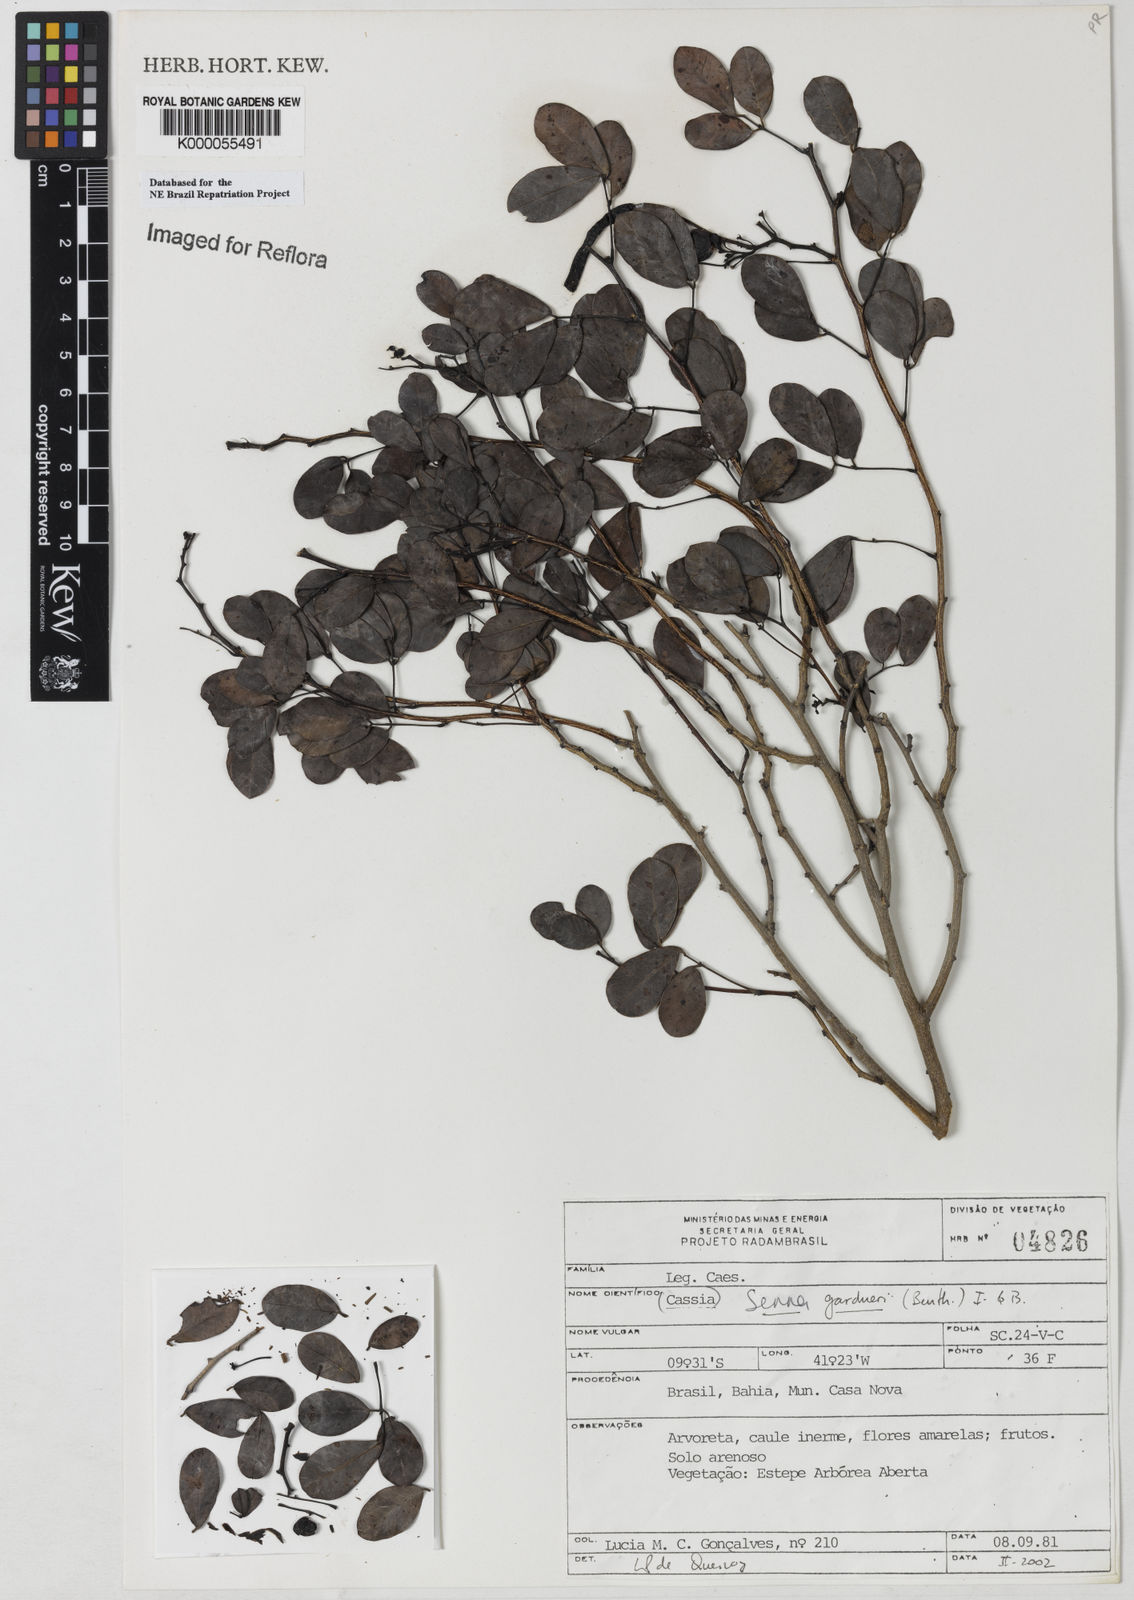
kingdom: Plantae
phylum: Tracheophyta
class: Magnoliopsida
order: Fabales
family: Fabaceae
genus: Senna
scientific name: Senna gardneri
